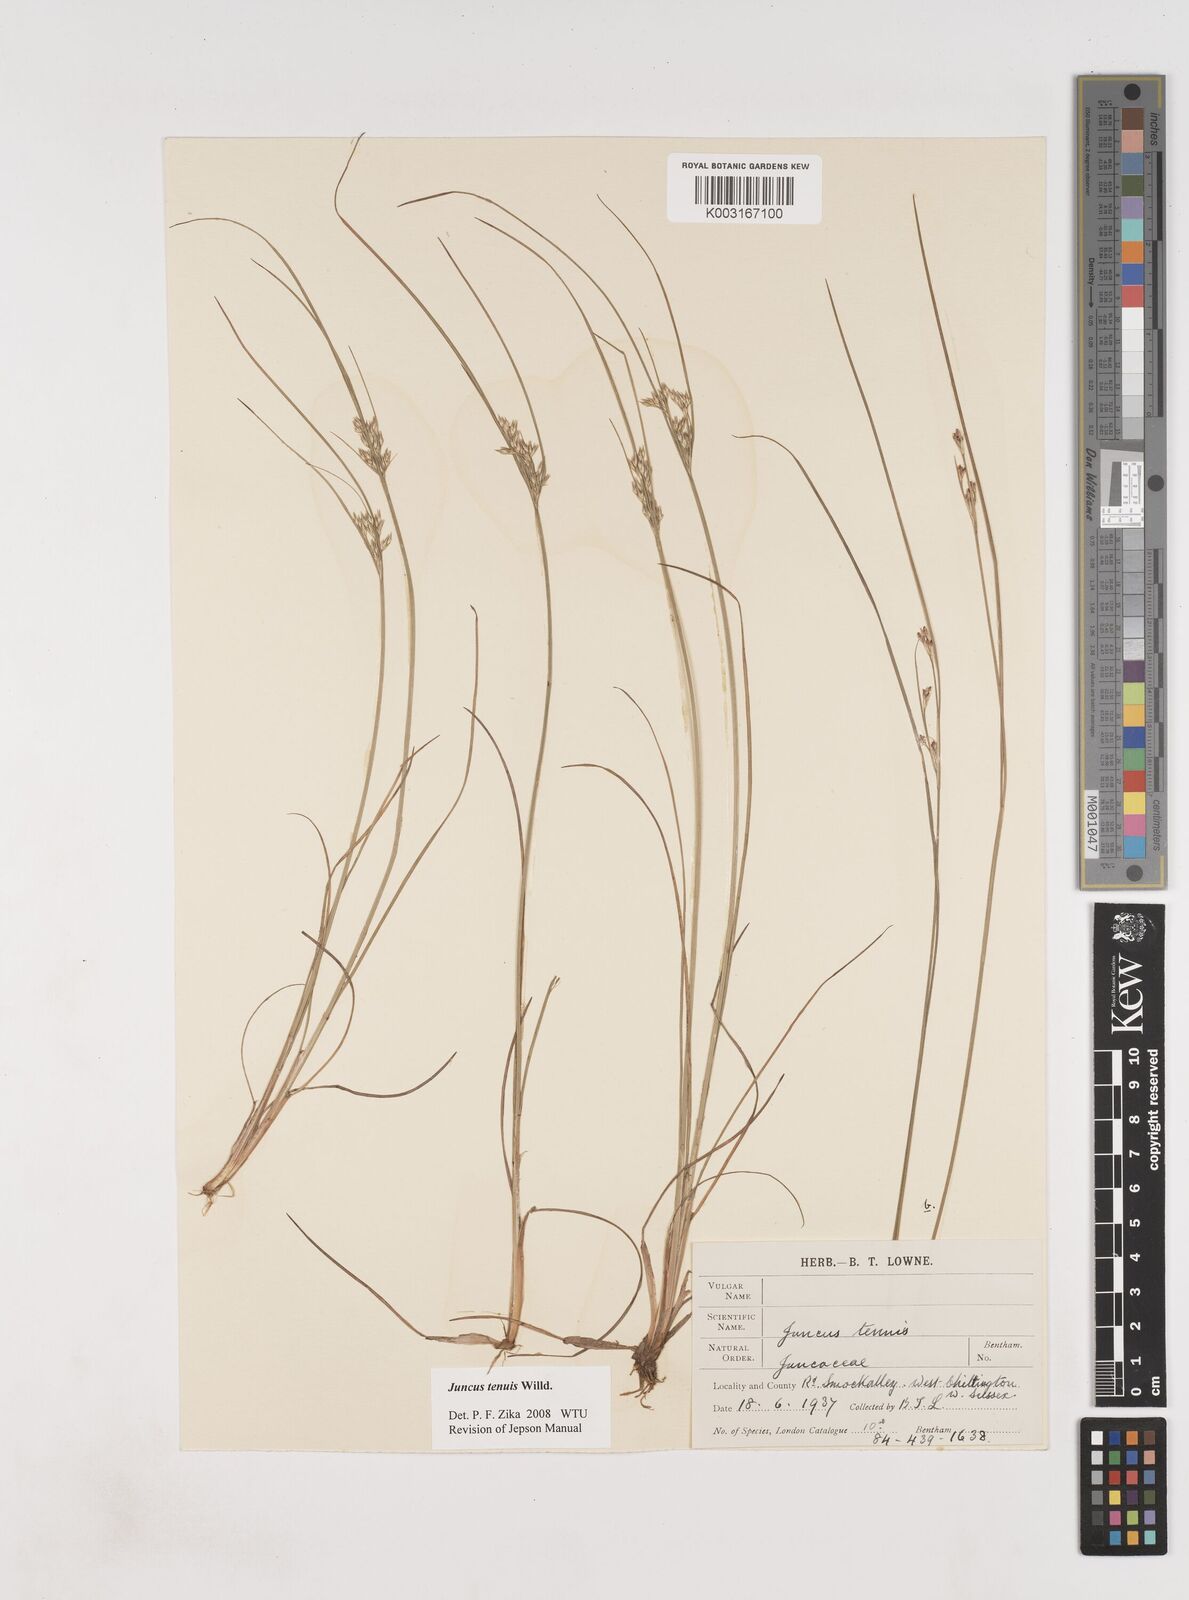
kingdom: Plantae
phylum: Tracheophyta
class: Liliopsida
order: Poales
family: Juncaceae
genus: Juncus
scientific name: Juncus tenuis
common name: Slender rush
